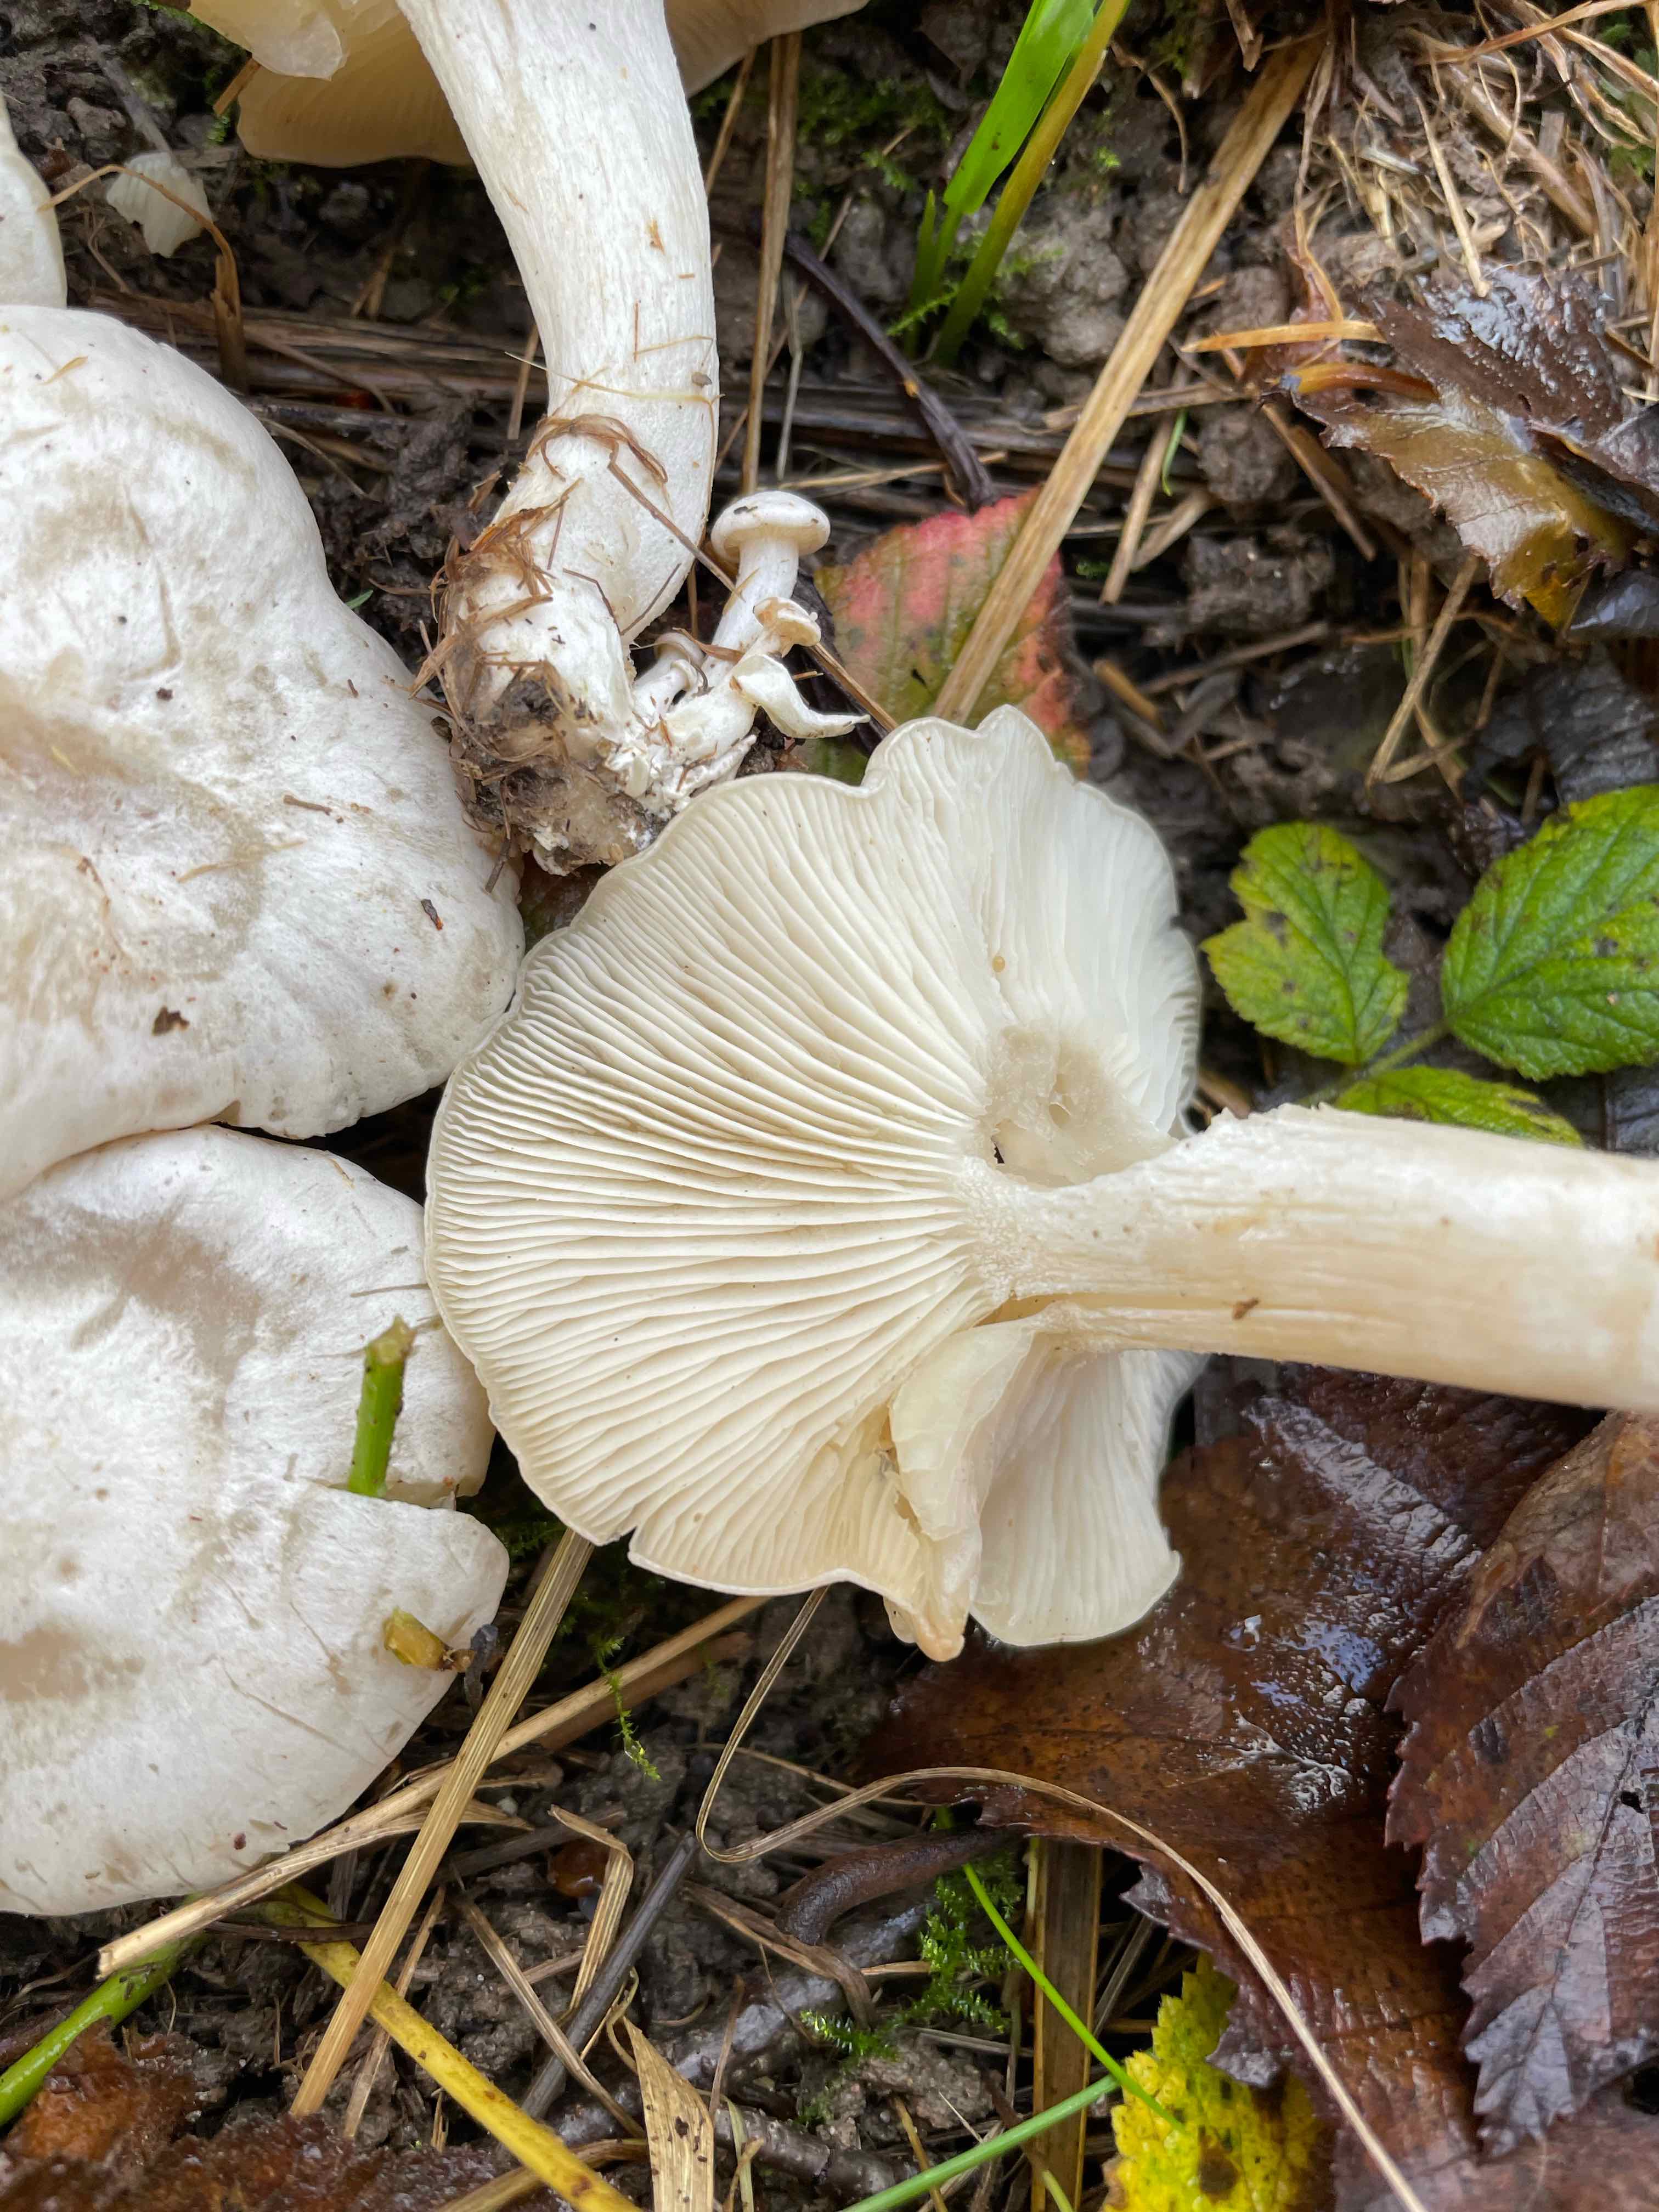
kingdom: Fungi
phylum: Basidiomycota
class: Agaricomycetes
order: Agaricales
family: Tricholomataceae
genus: Leucocybe
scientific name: Leucocybe connata
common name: knippe-tragthat
